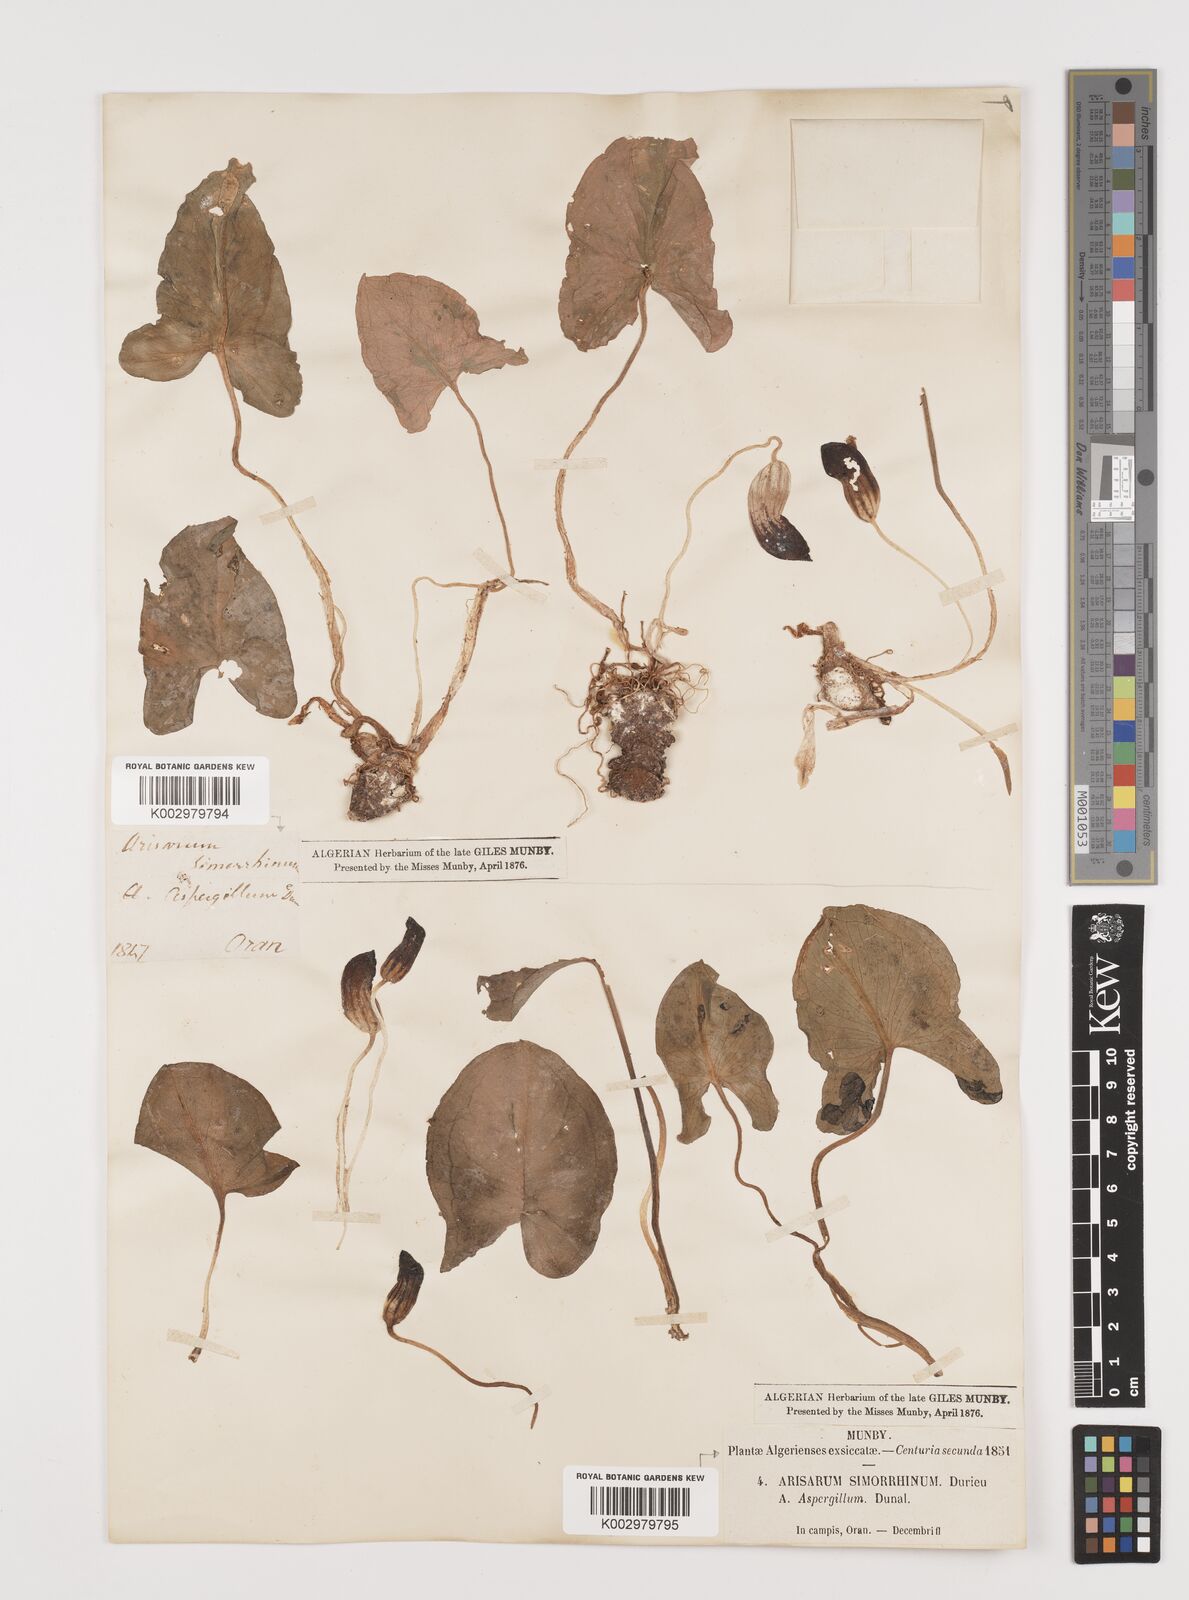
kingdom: Plantae
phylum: Tracheophyta
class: Liliopsida
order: Alismatales
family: Araceae
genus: Arisarum
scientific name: Arisarum simorrhinum
